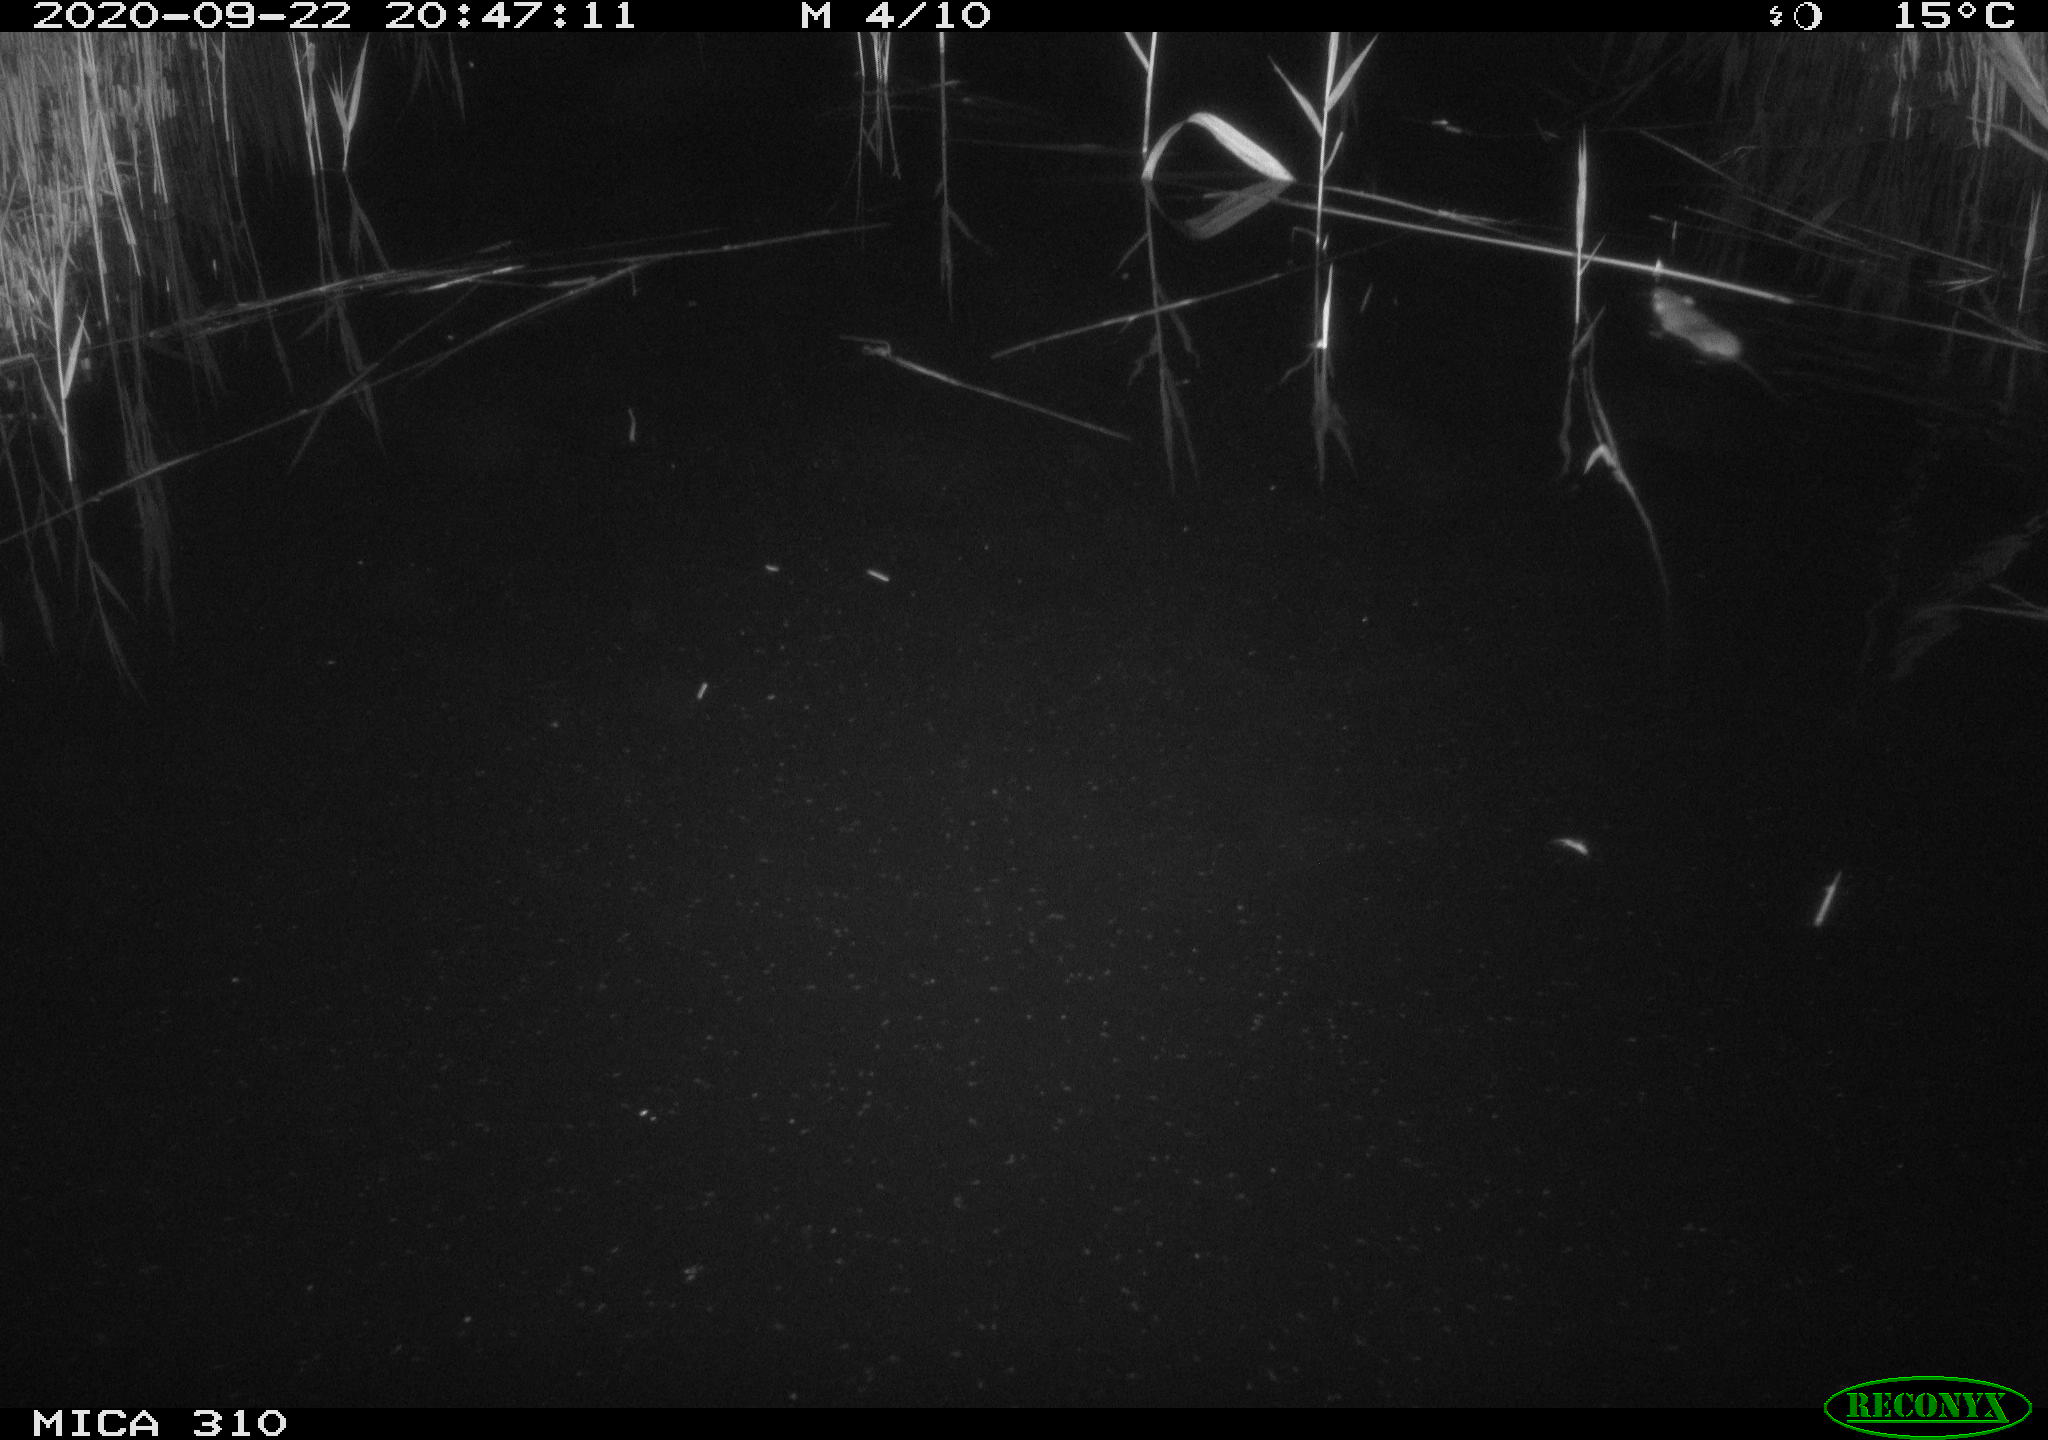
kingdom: Animalia
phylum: Chordata
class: Mammalia
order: Rodentia
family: Muridae
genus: Rattus
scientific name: Rattus norvegicus
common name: Brown rat
